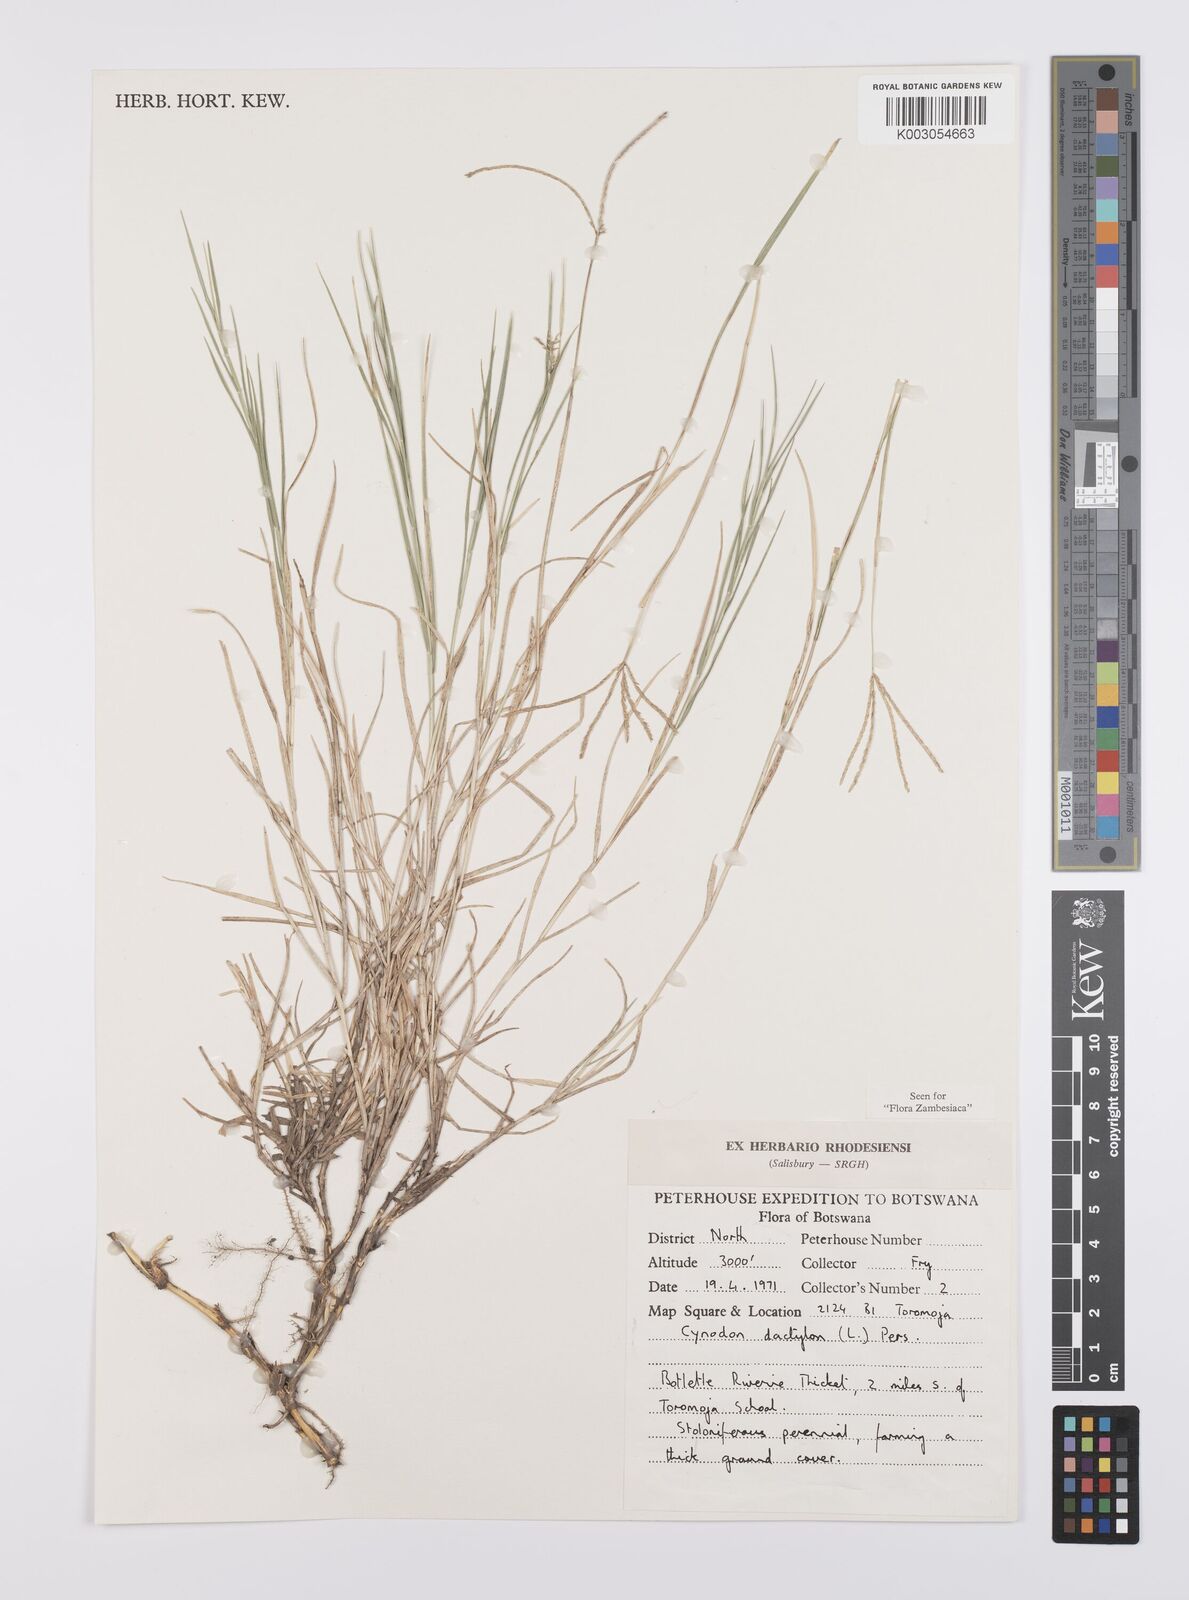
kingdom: Plantae
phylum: Tracheophyta
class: Liliopsida
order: Poales
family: Poaceae
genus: Cynodon
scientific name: Cynodon dactylon
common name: Bermuda grass
